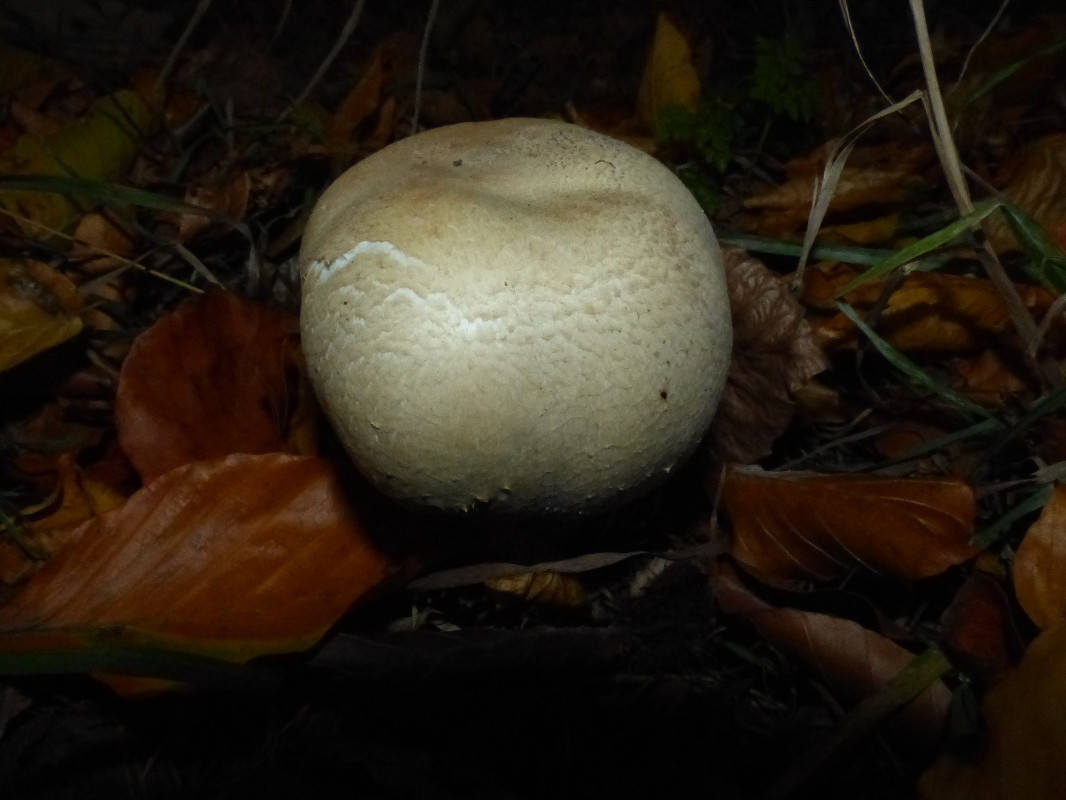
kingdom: Fungi
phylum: Basidiomycota
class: Agaricomycetes
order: Agaricales
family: Agaricaceae
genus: Agaricus
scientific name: Agaricus arvensis
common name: ager-champignon
